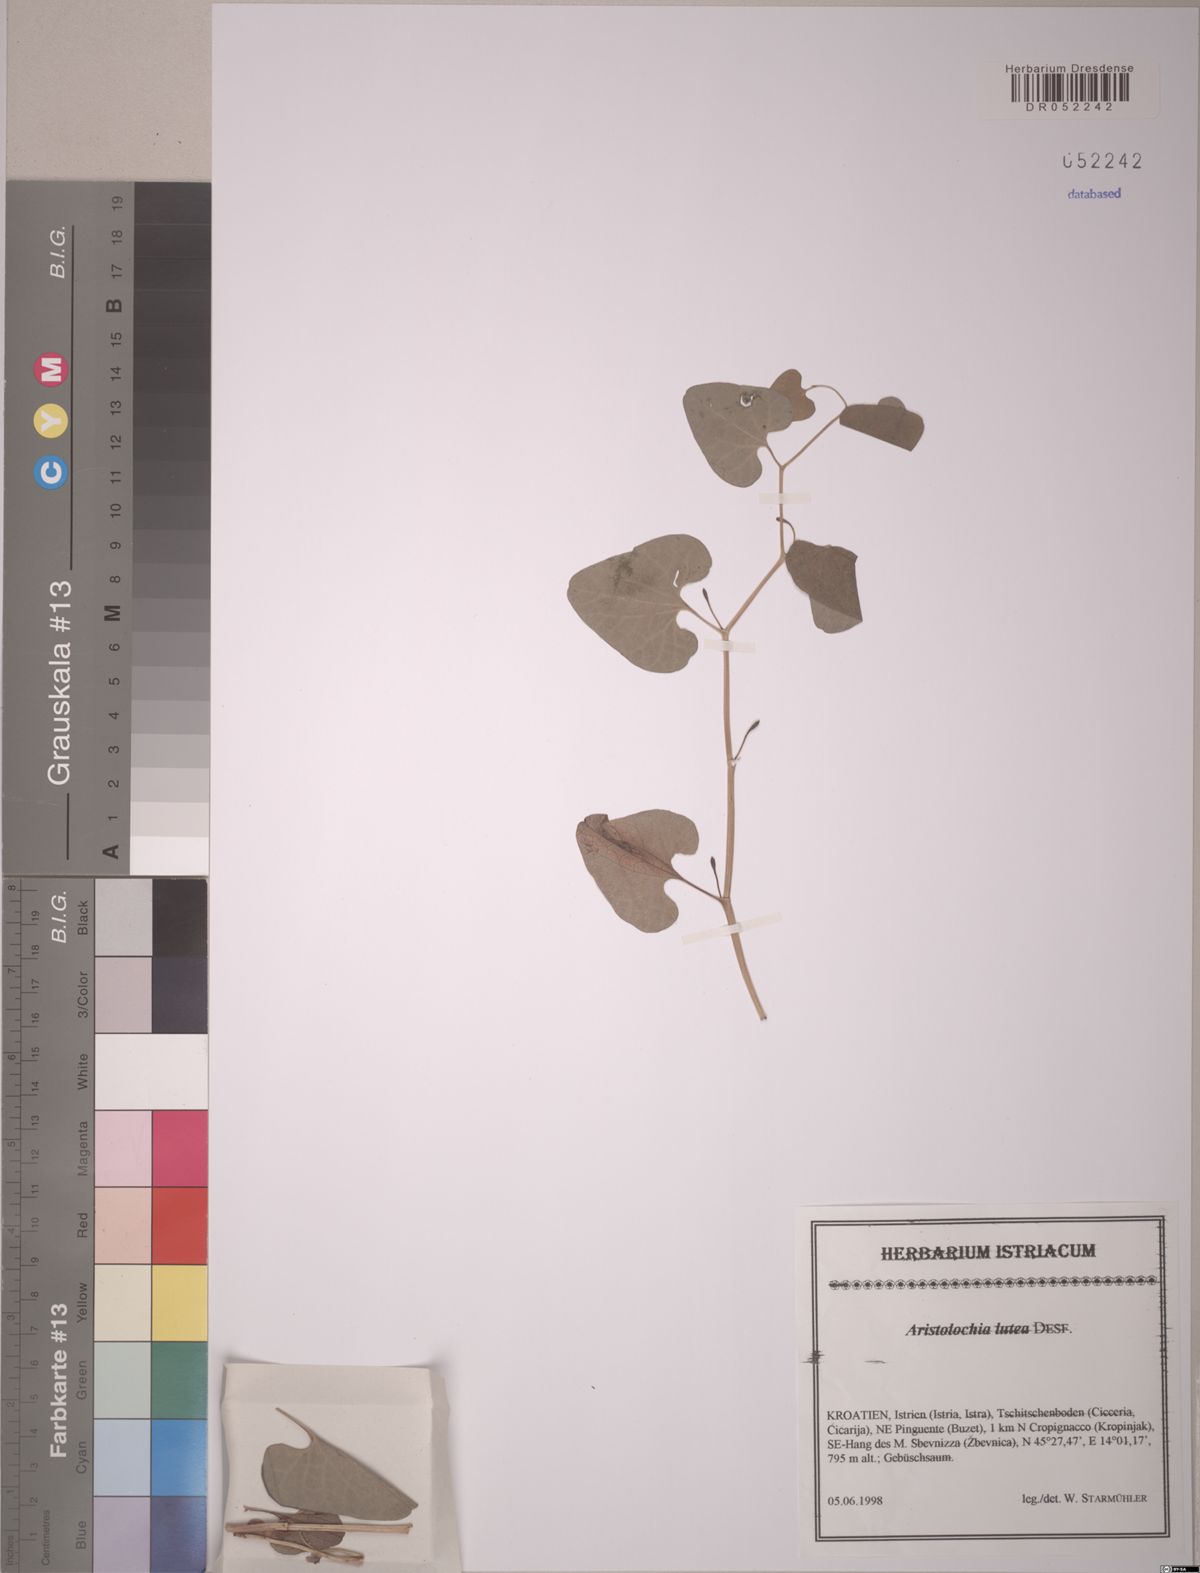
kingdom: Plantae
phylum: Tracheophyta
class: Magnoliopsida
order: Piperales
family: Aristolochiaceae
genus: Aristolochia
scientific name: Aristolochia lutea
